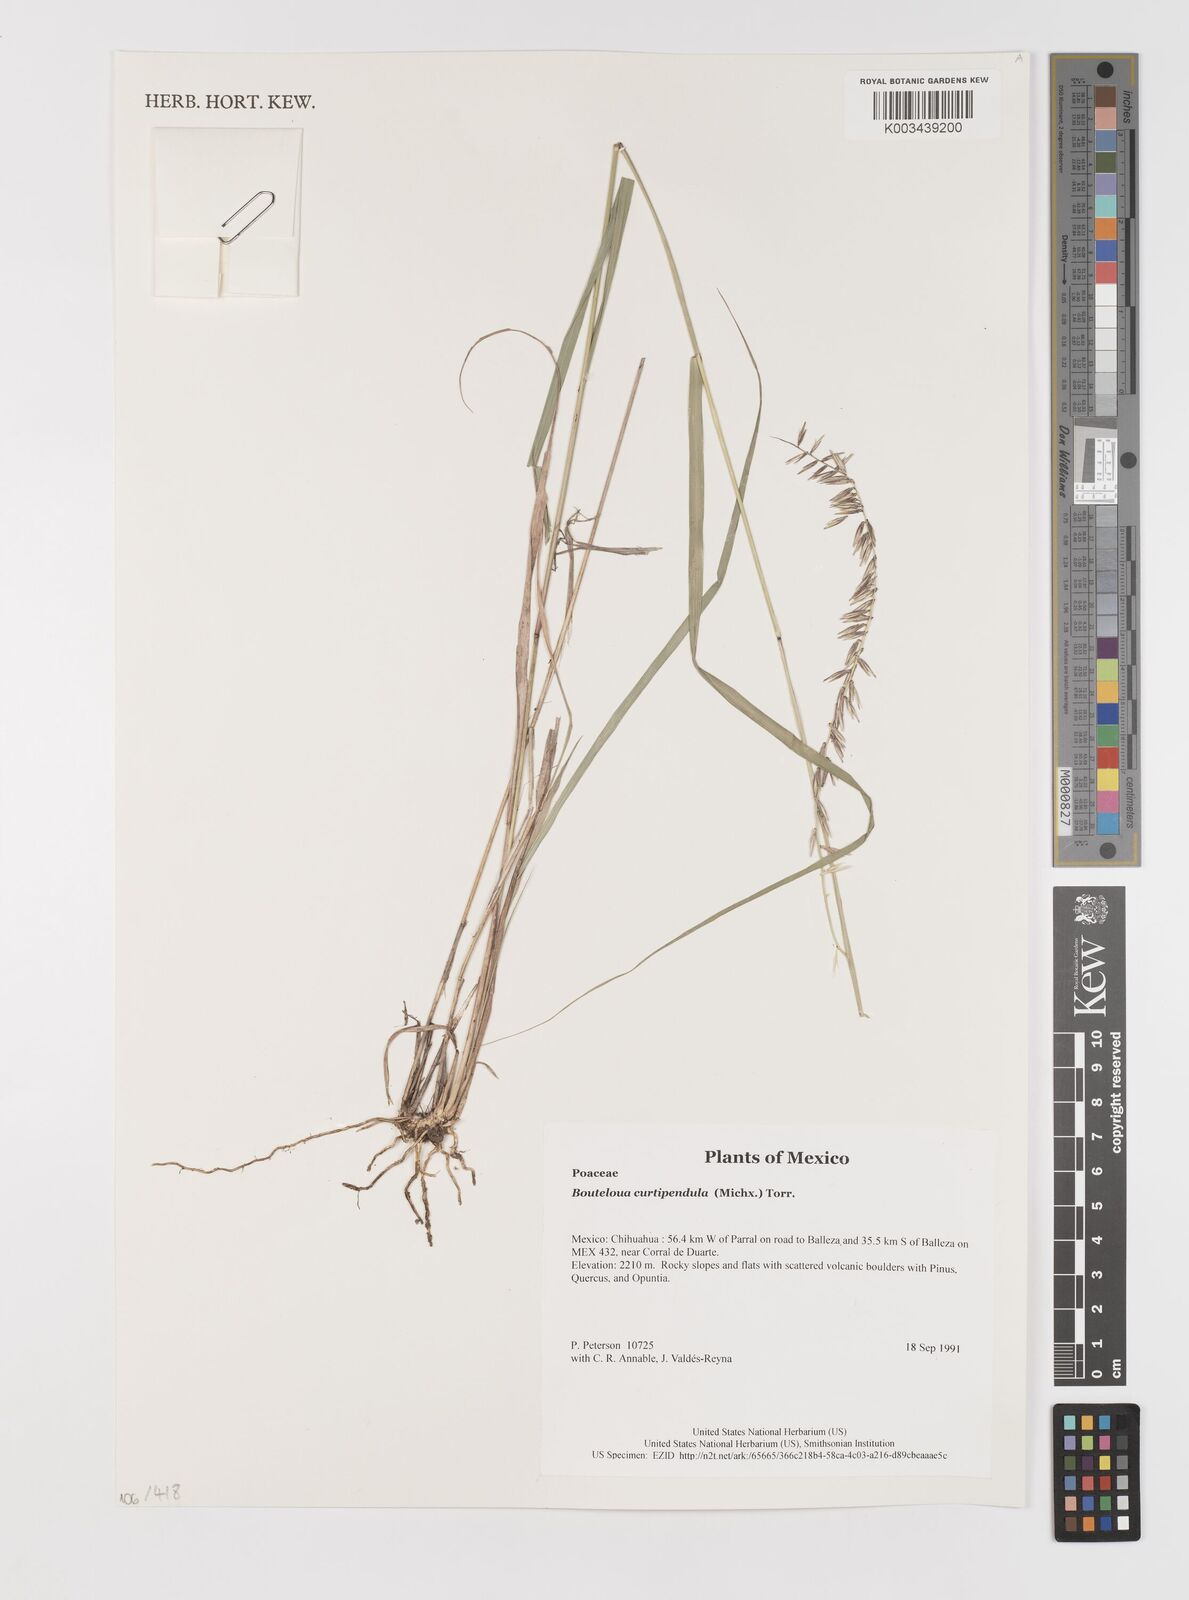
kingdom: Plantae
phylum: Tracheophyta
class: Liliopsida
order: Poales
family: Poaceae
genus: Bouteloua
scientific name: Bouteloua curtipendula
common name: Side-oats grama
